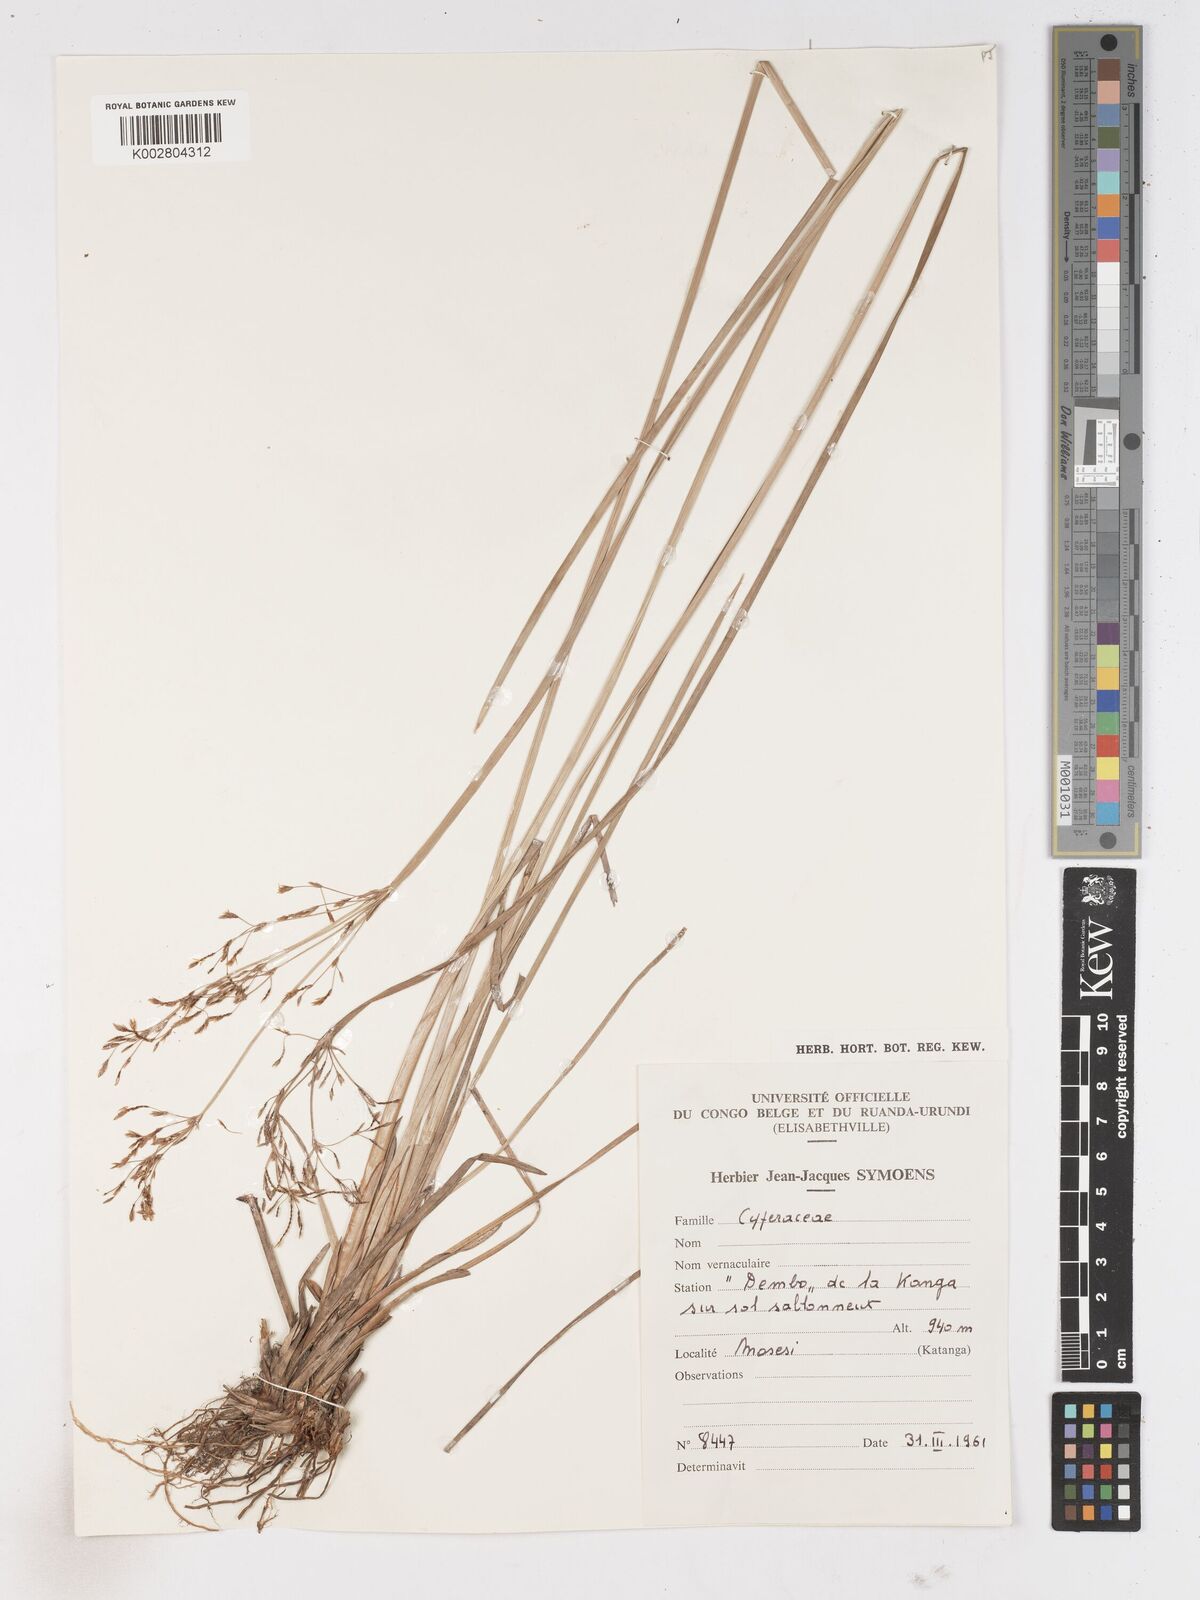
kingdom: Plantae
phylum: Tracheophyta
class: Liliopsida
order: Poales
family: Cyperaceae
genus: Fimbristylis
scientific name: Fimbristylis
